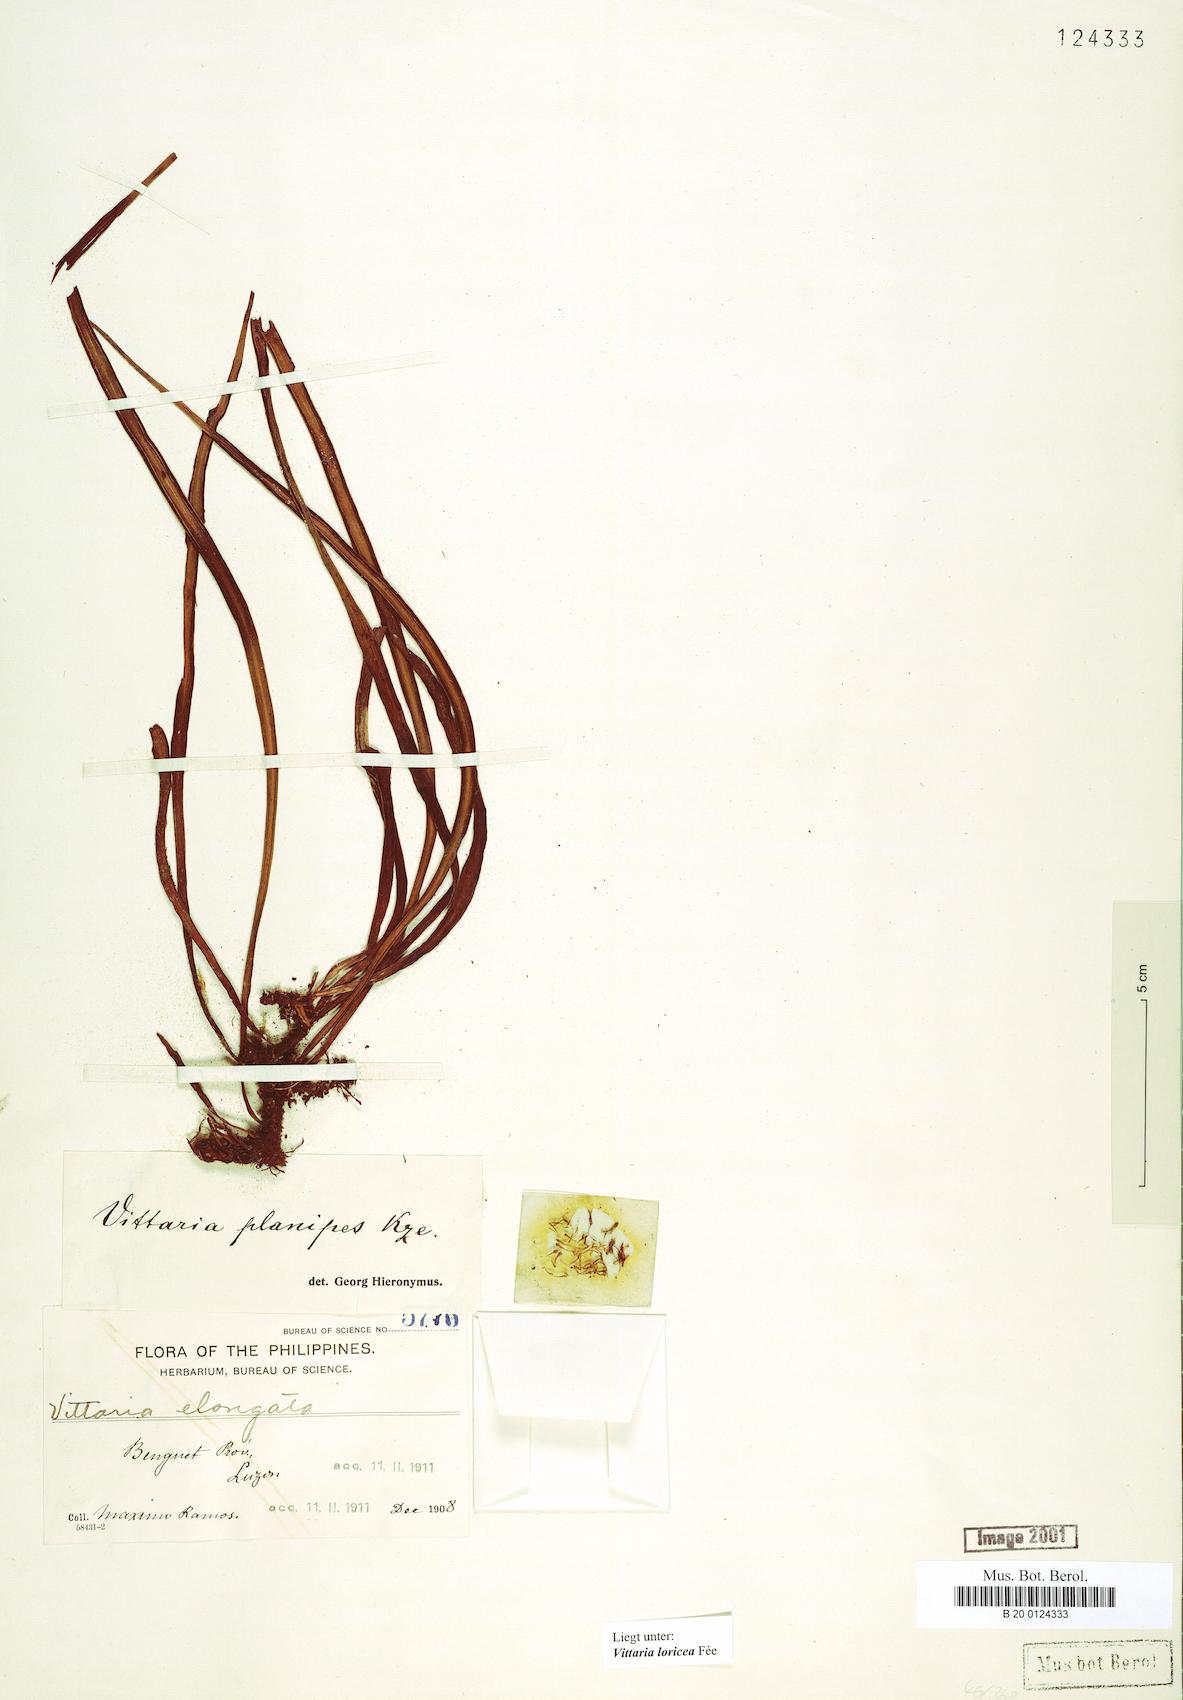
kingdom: Plantae
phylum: Tracheophyta
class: Polypodiopsida
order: Polypodiales
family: Pteridaceae
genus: Haplopteris
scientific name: Haplopteris zosterifolia
